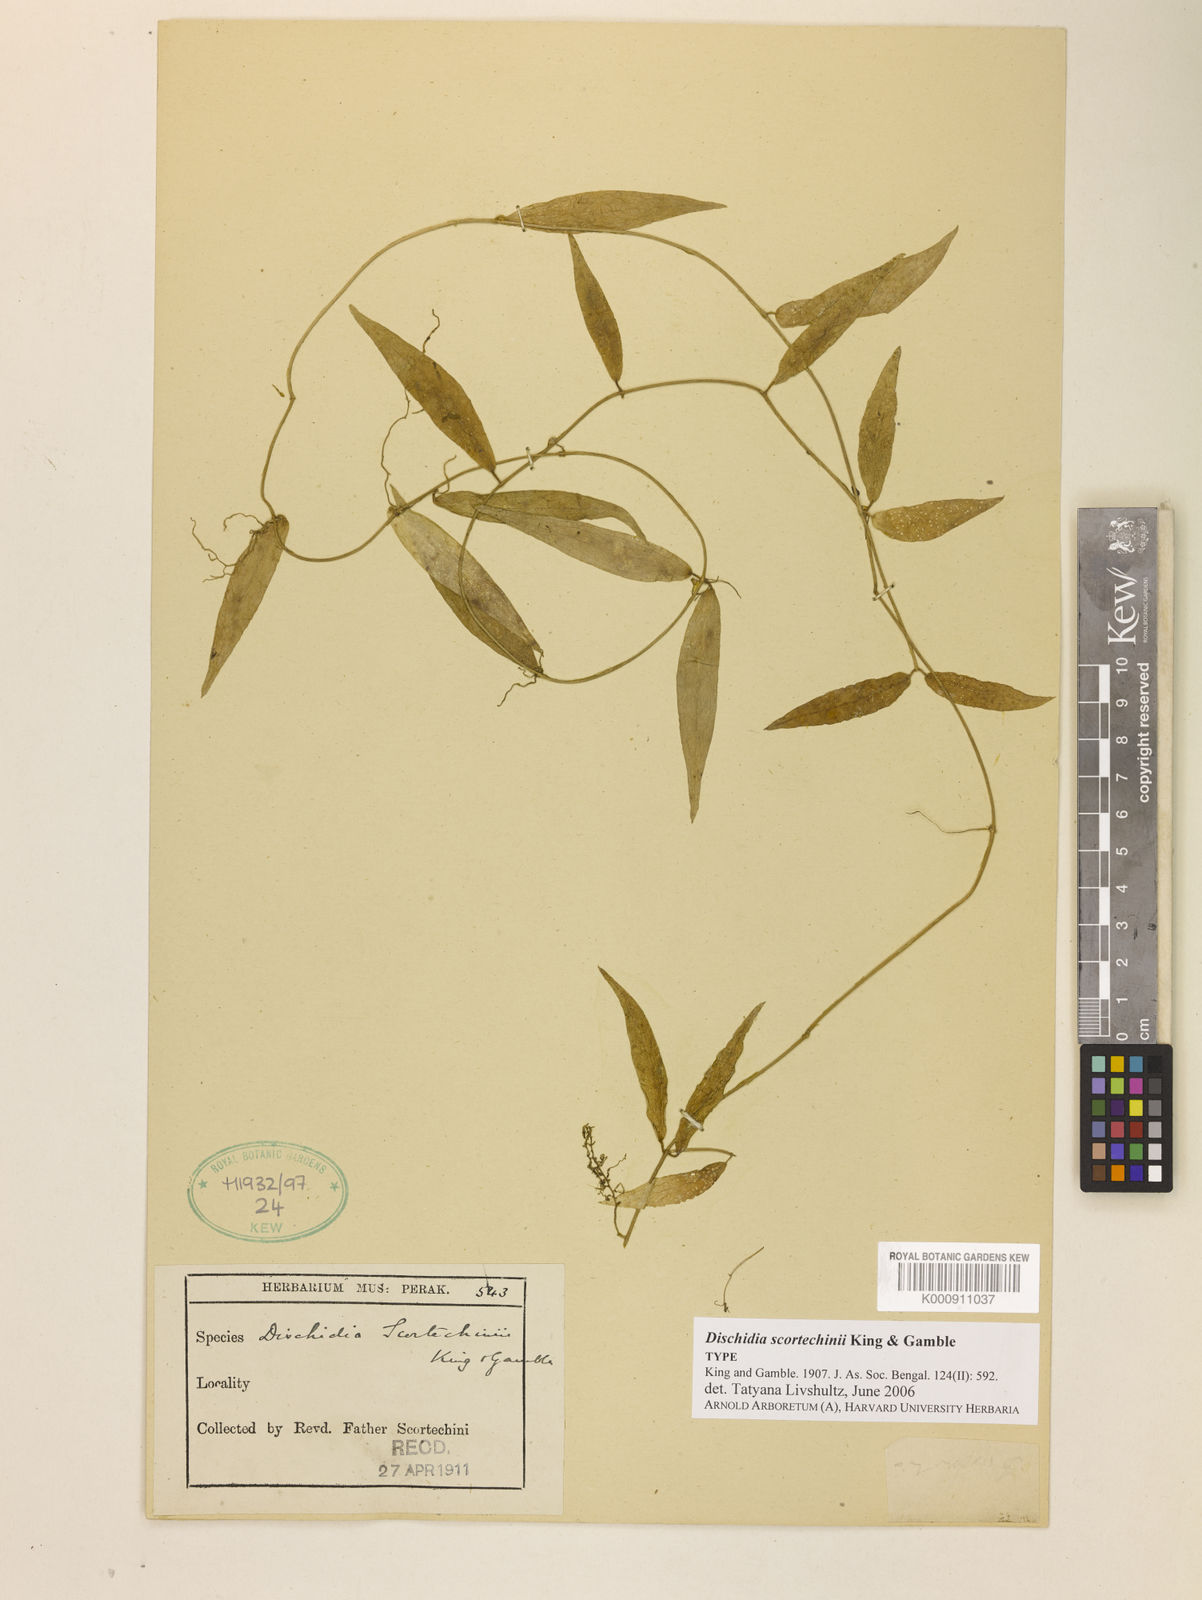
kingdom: Plantae
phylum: Tracheophyta
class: Magnoliopsida
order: Gentianales
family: Apocynaceae
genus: Dischidia
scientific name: Dischidia scortechinii
